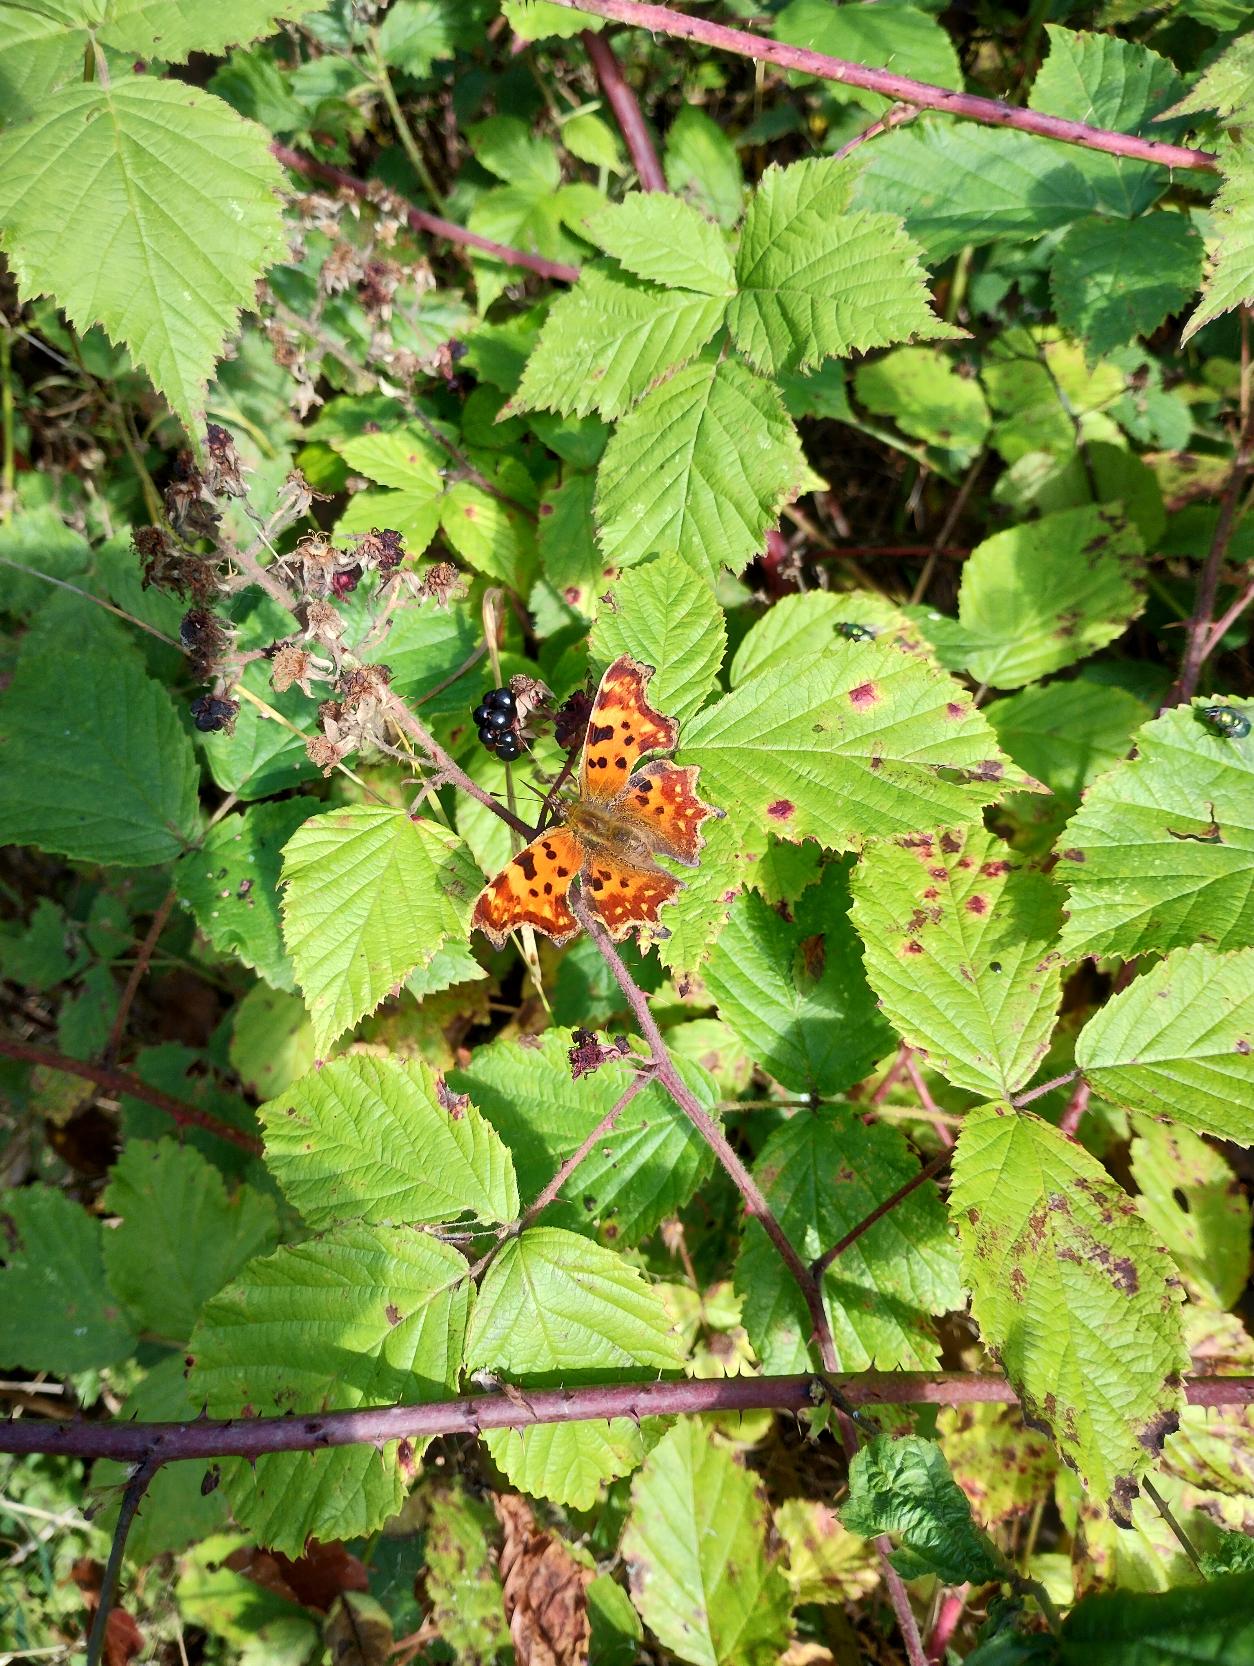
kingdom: Animalia
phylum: Arthropoda
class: Insecta
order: Lepidoptera
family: Nymphalidae
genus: Polygonia
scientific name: Polygonia c-album
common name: Det hvide C
